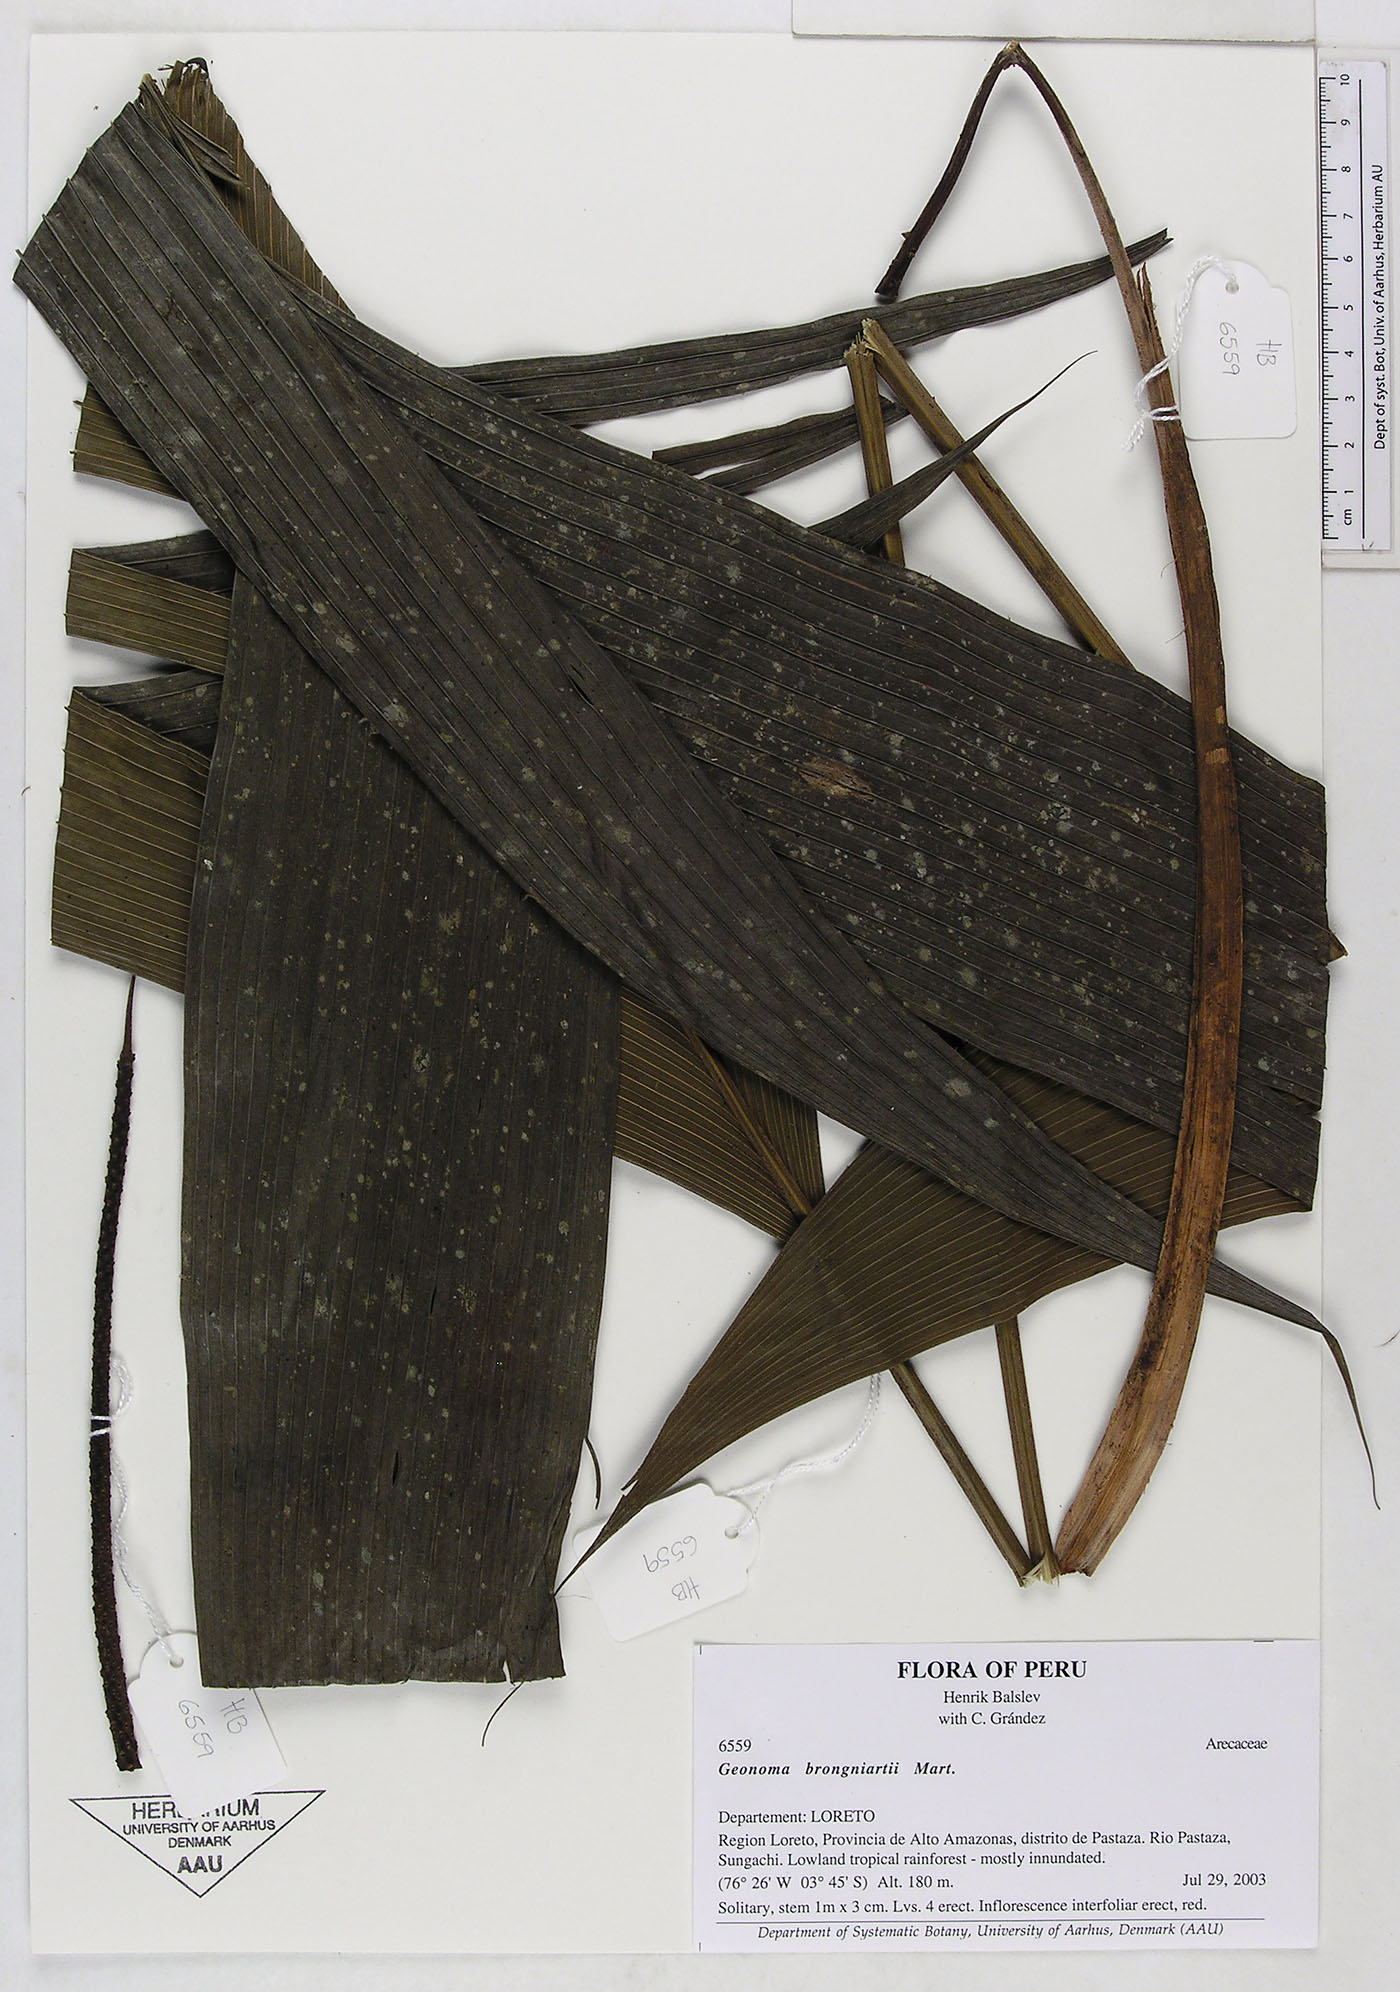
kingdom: Plantae
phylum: Tracheophyta
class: Liliopsida
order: Arecales
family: Arecaceae
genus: Geonoma
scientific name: Geonoma brongniartii
